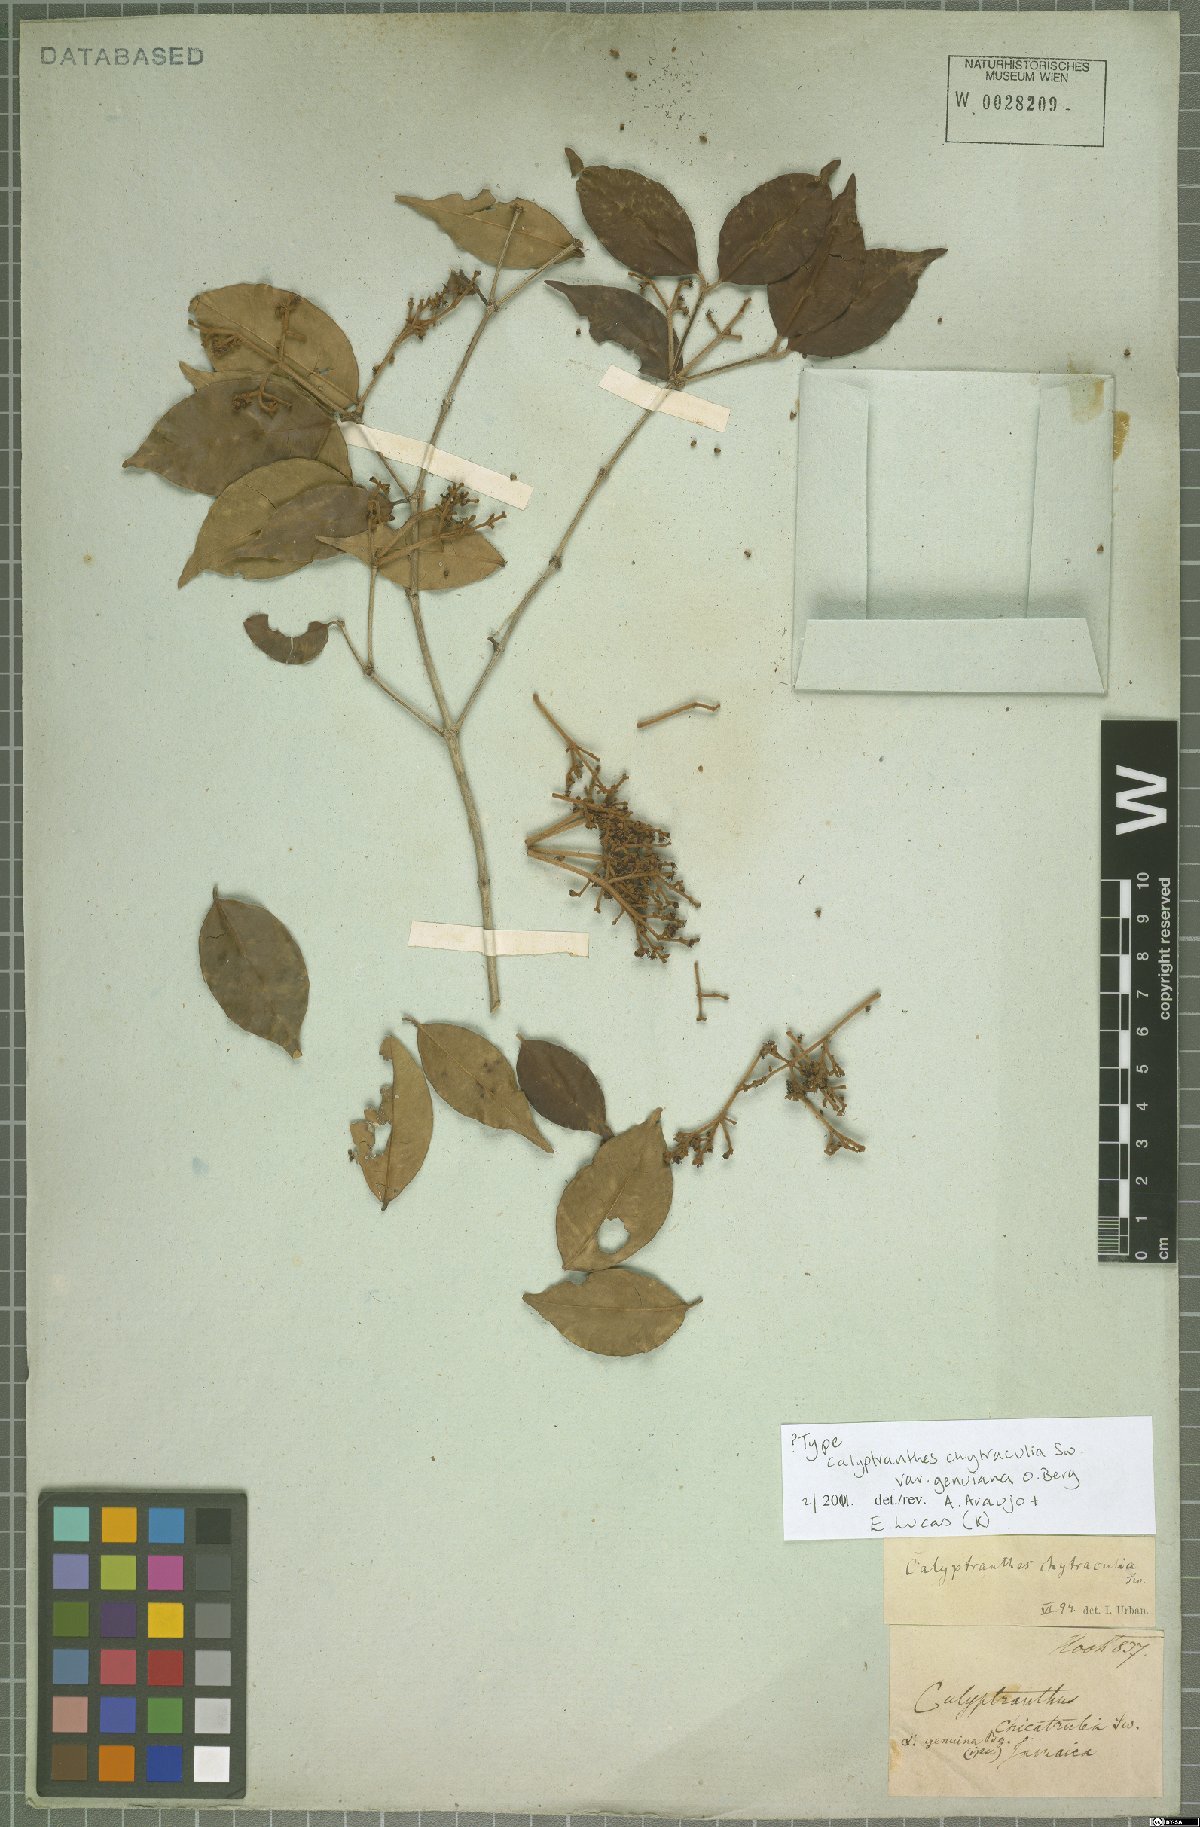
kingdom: Plantae
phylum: Tracheophyta
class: Magnoliopsida
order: Myrtales
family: Myrtaceae
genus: Myrcia
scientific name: Myrcia chytraculia
